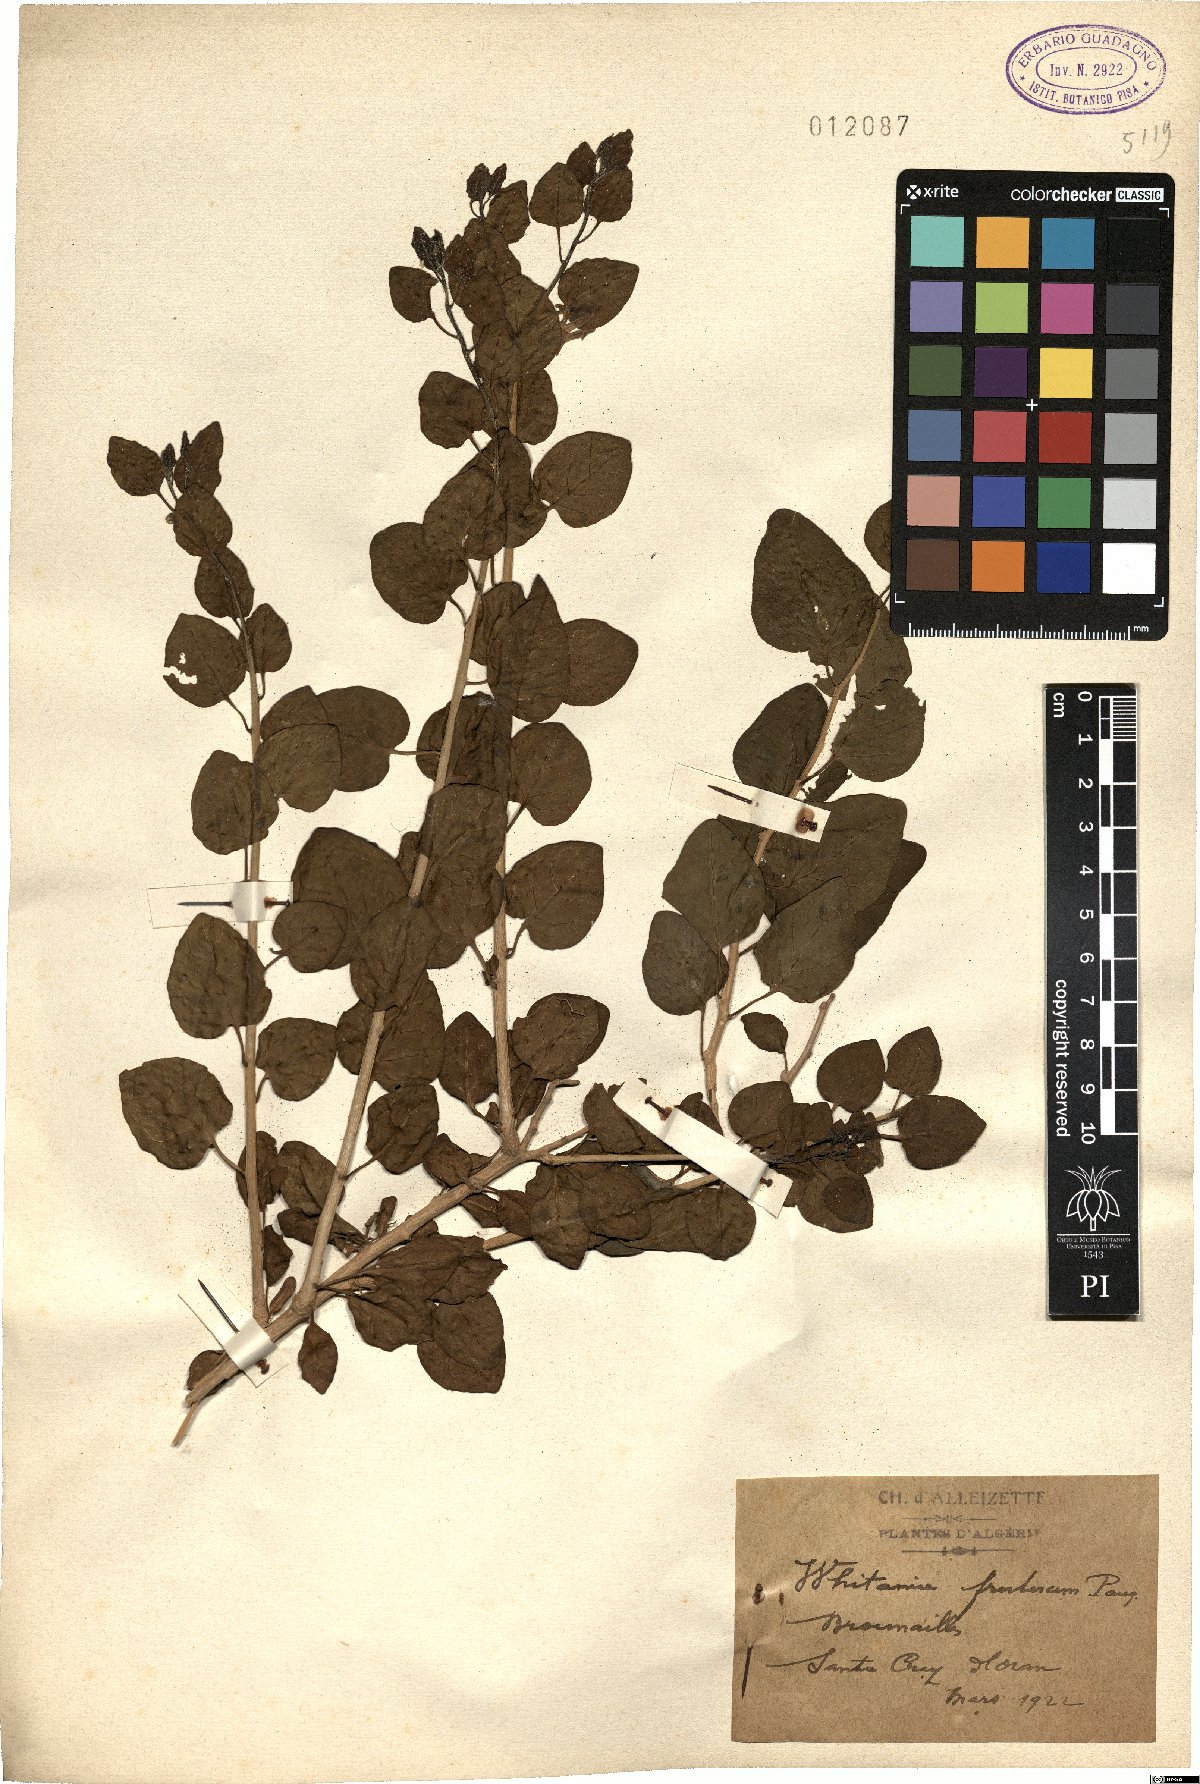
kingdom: Plantae
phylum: Tracheophyta
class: Magnoliopsida
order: Solanales
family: Solanaceae
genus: Withania
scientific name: Withania frutescens
